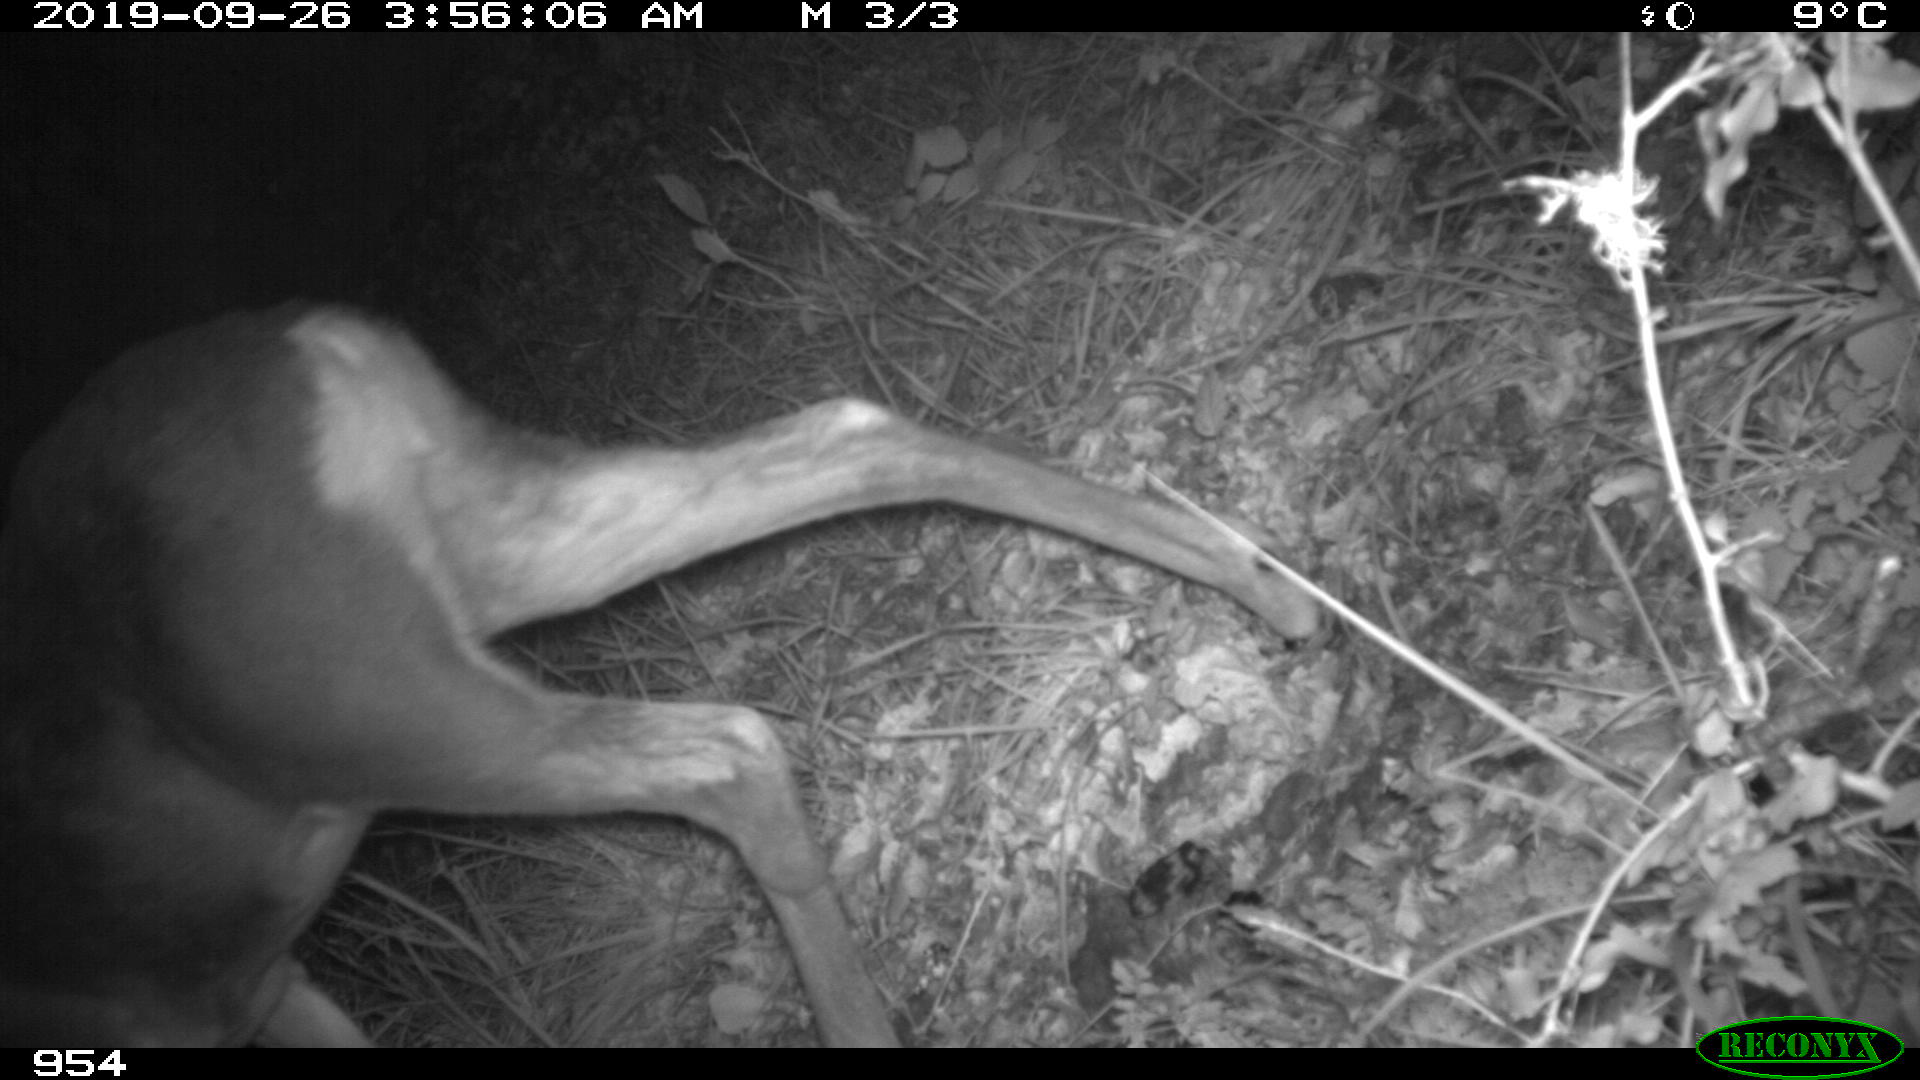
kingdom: Animalia
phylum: Chordata
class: Mammalia
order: Artiodactyla
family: Cervidae
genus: Capreolus
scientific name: Capreolus capreolus
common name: Western roe deer
